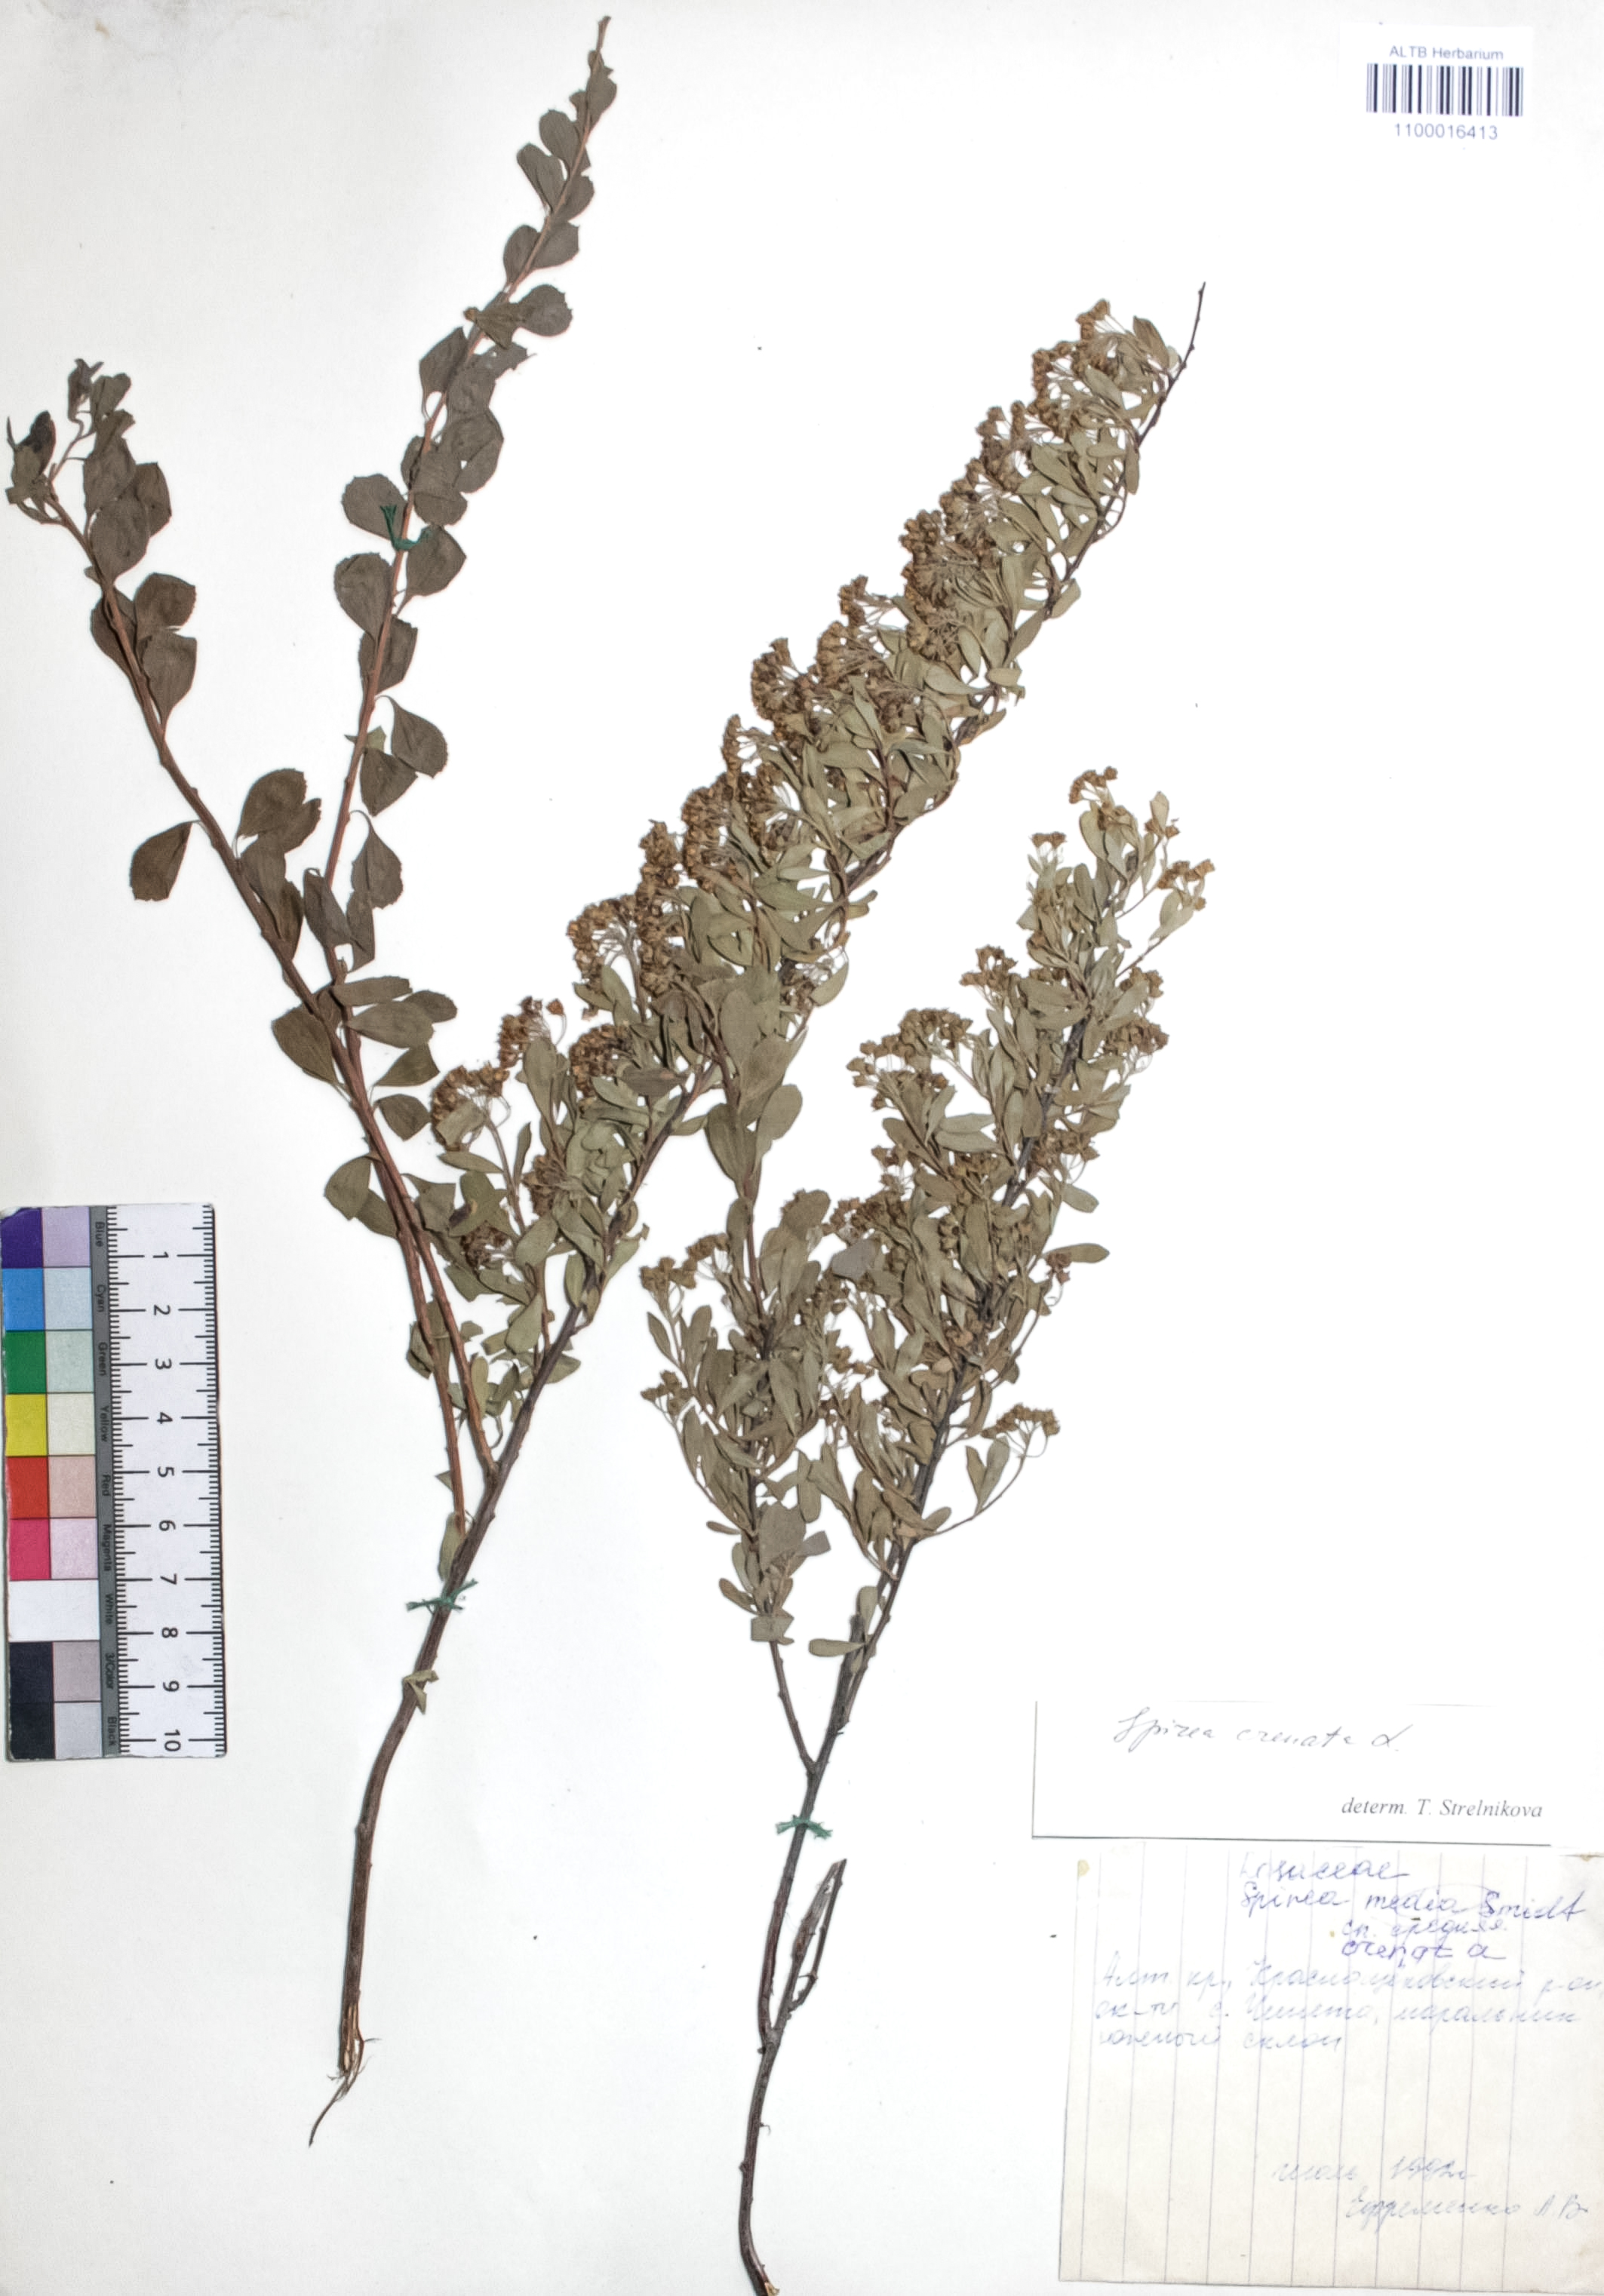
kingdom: Plantae
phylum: Tracheophyta
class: Magnoliopsida
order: Rosales
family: Rosaceae
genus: Spiraea
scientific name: Spiraea crenata
